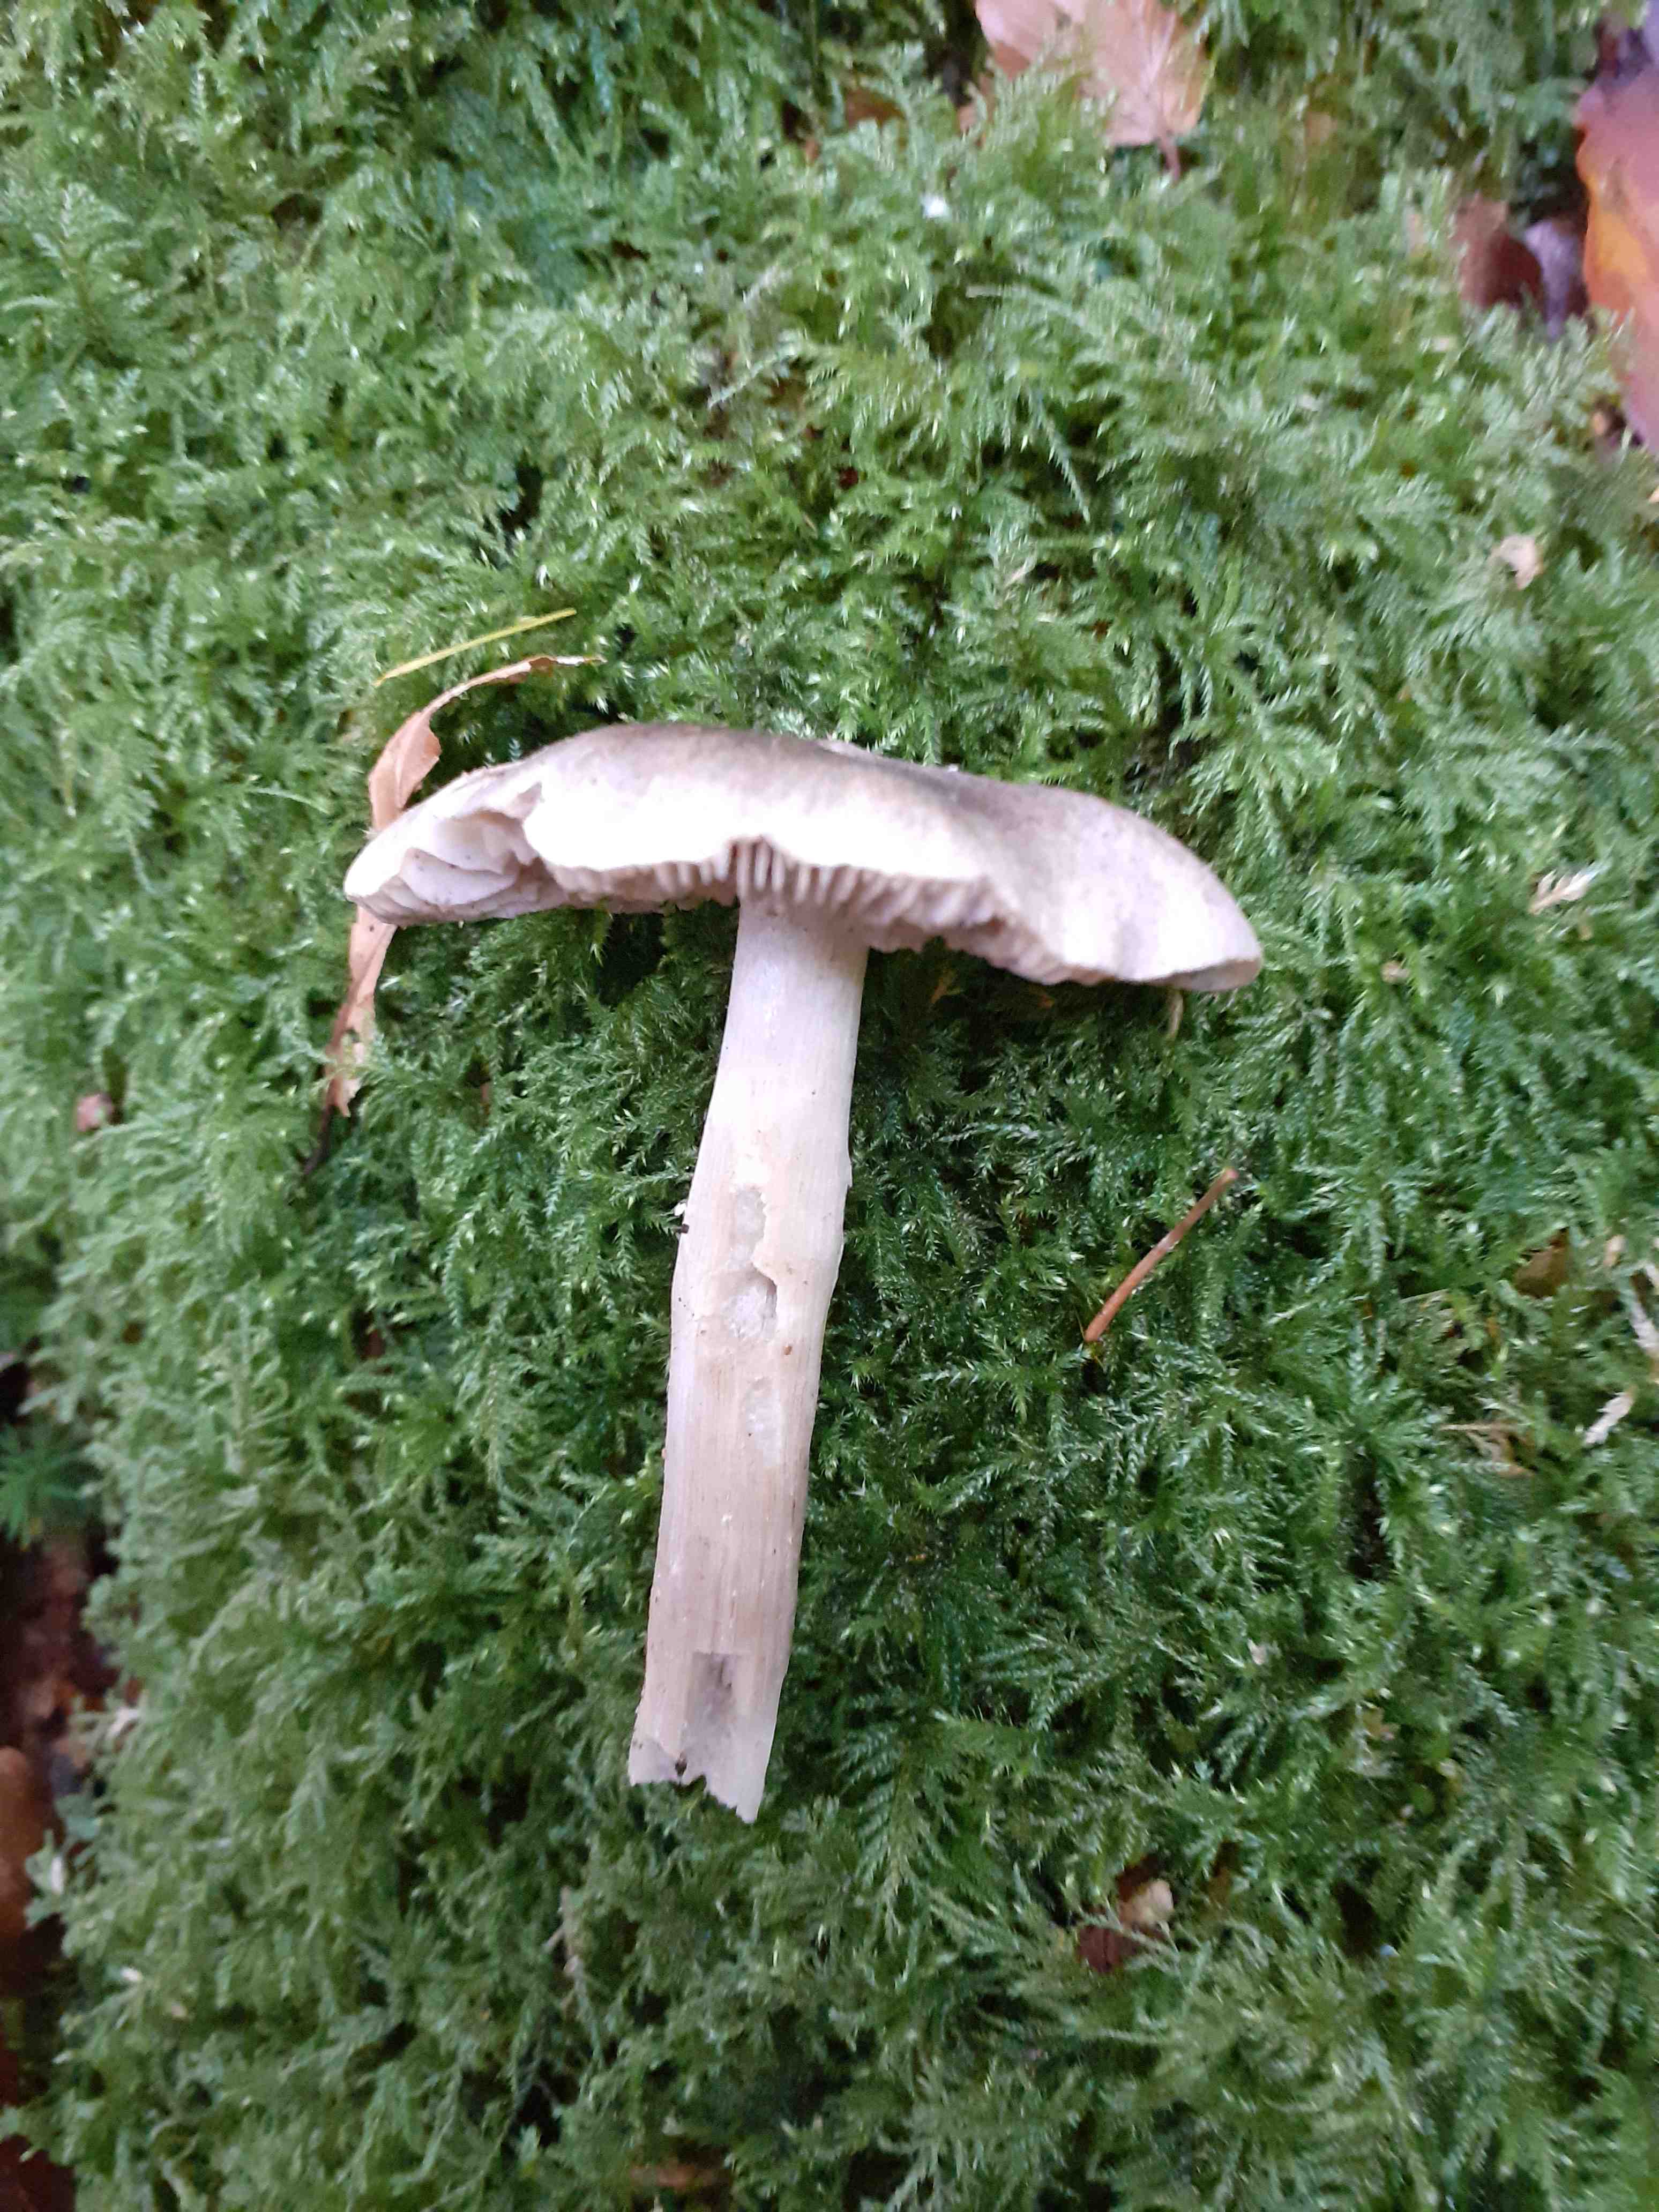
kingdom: Fungi
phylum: Basidiomycota
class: Agaricomycetes
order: Agaricales
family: Tricholomataceae
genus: Tricholoma
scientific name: Tricholoma sciodes
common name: stribet ridderhat
